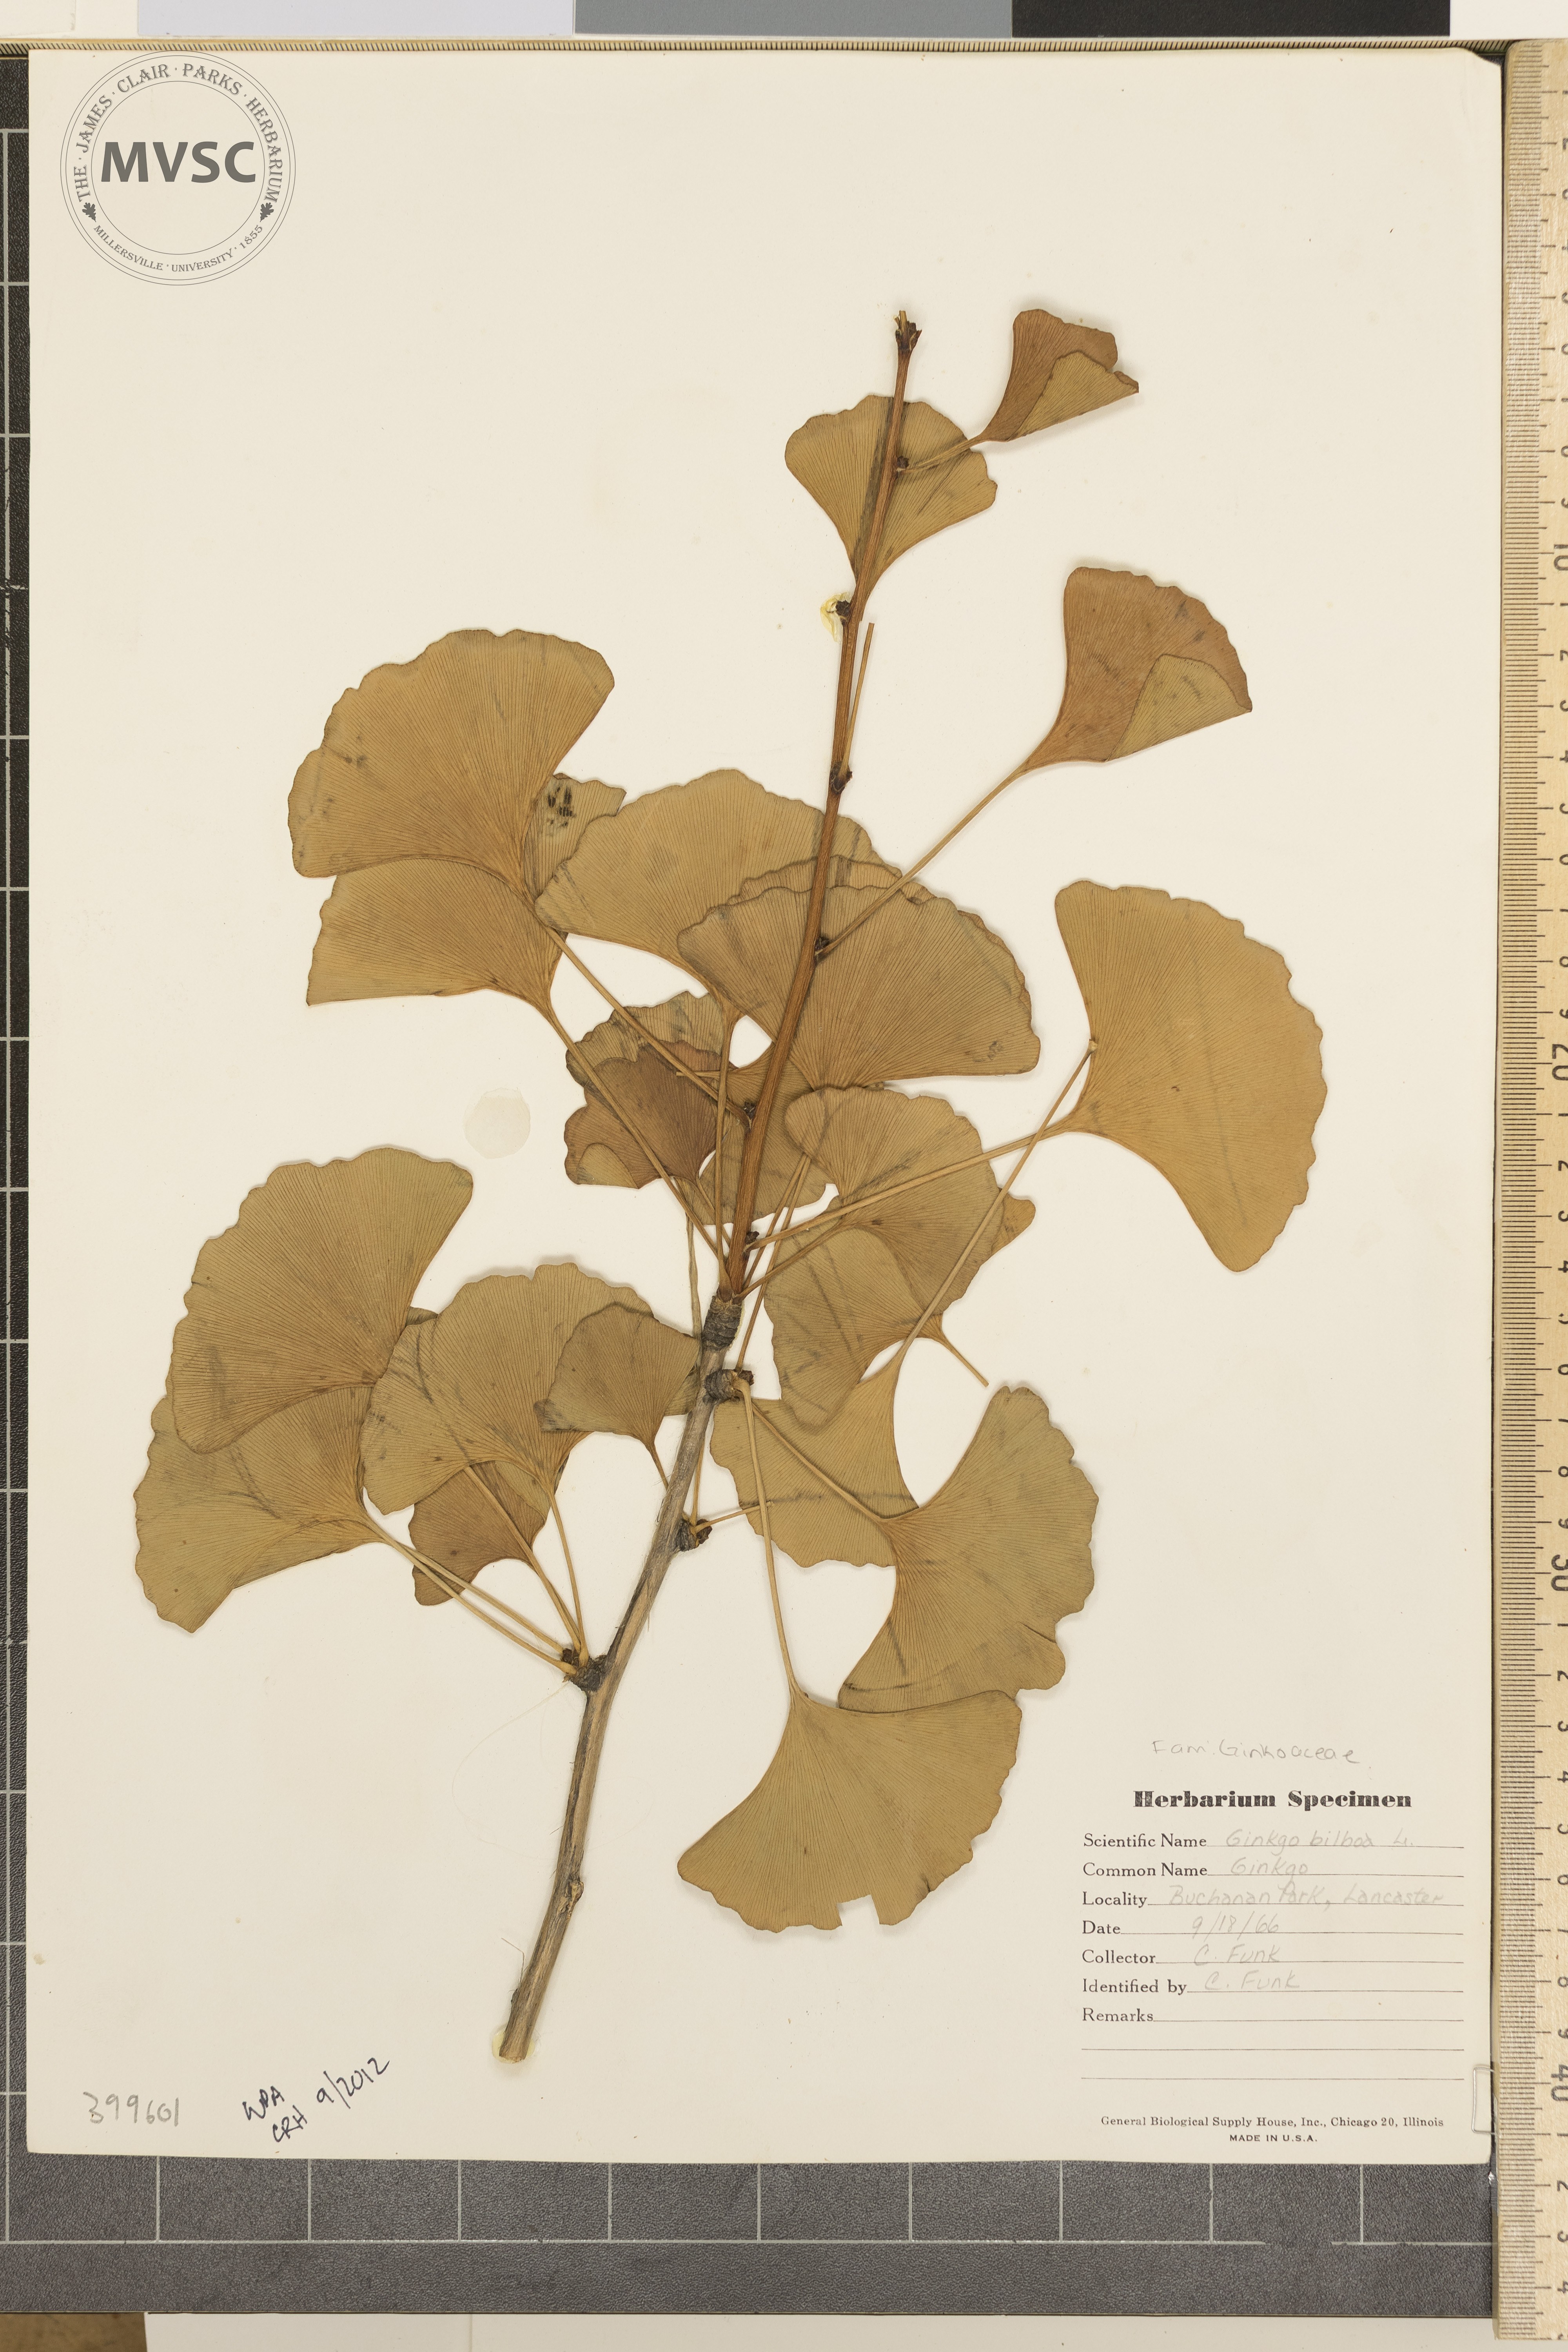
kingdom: Plantae
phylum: Tracheophyta
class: Ginkgoopsida
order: Ginkgoales
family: Ginkgoaceae
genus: Ginkgo
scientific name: Ginkgo biloba
